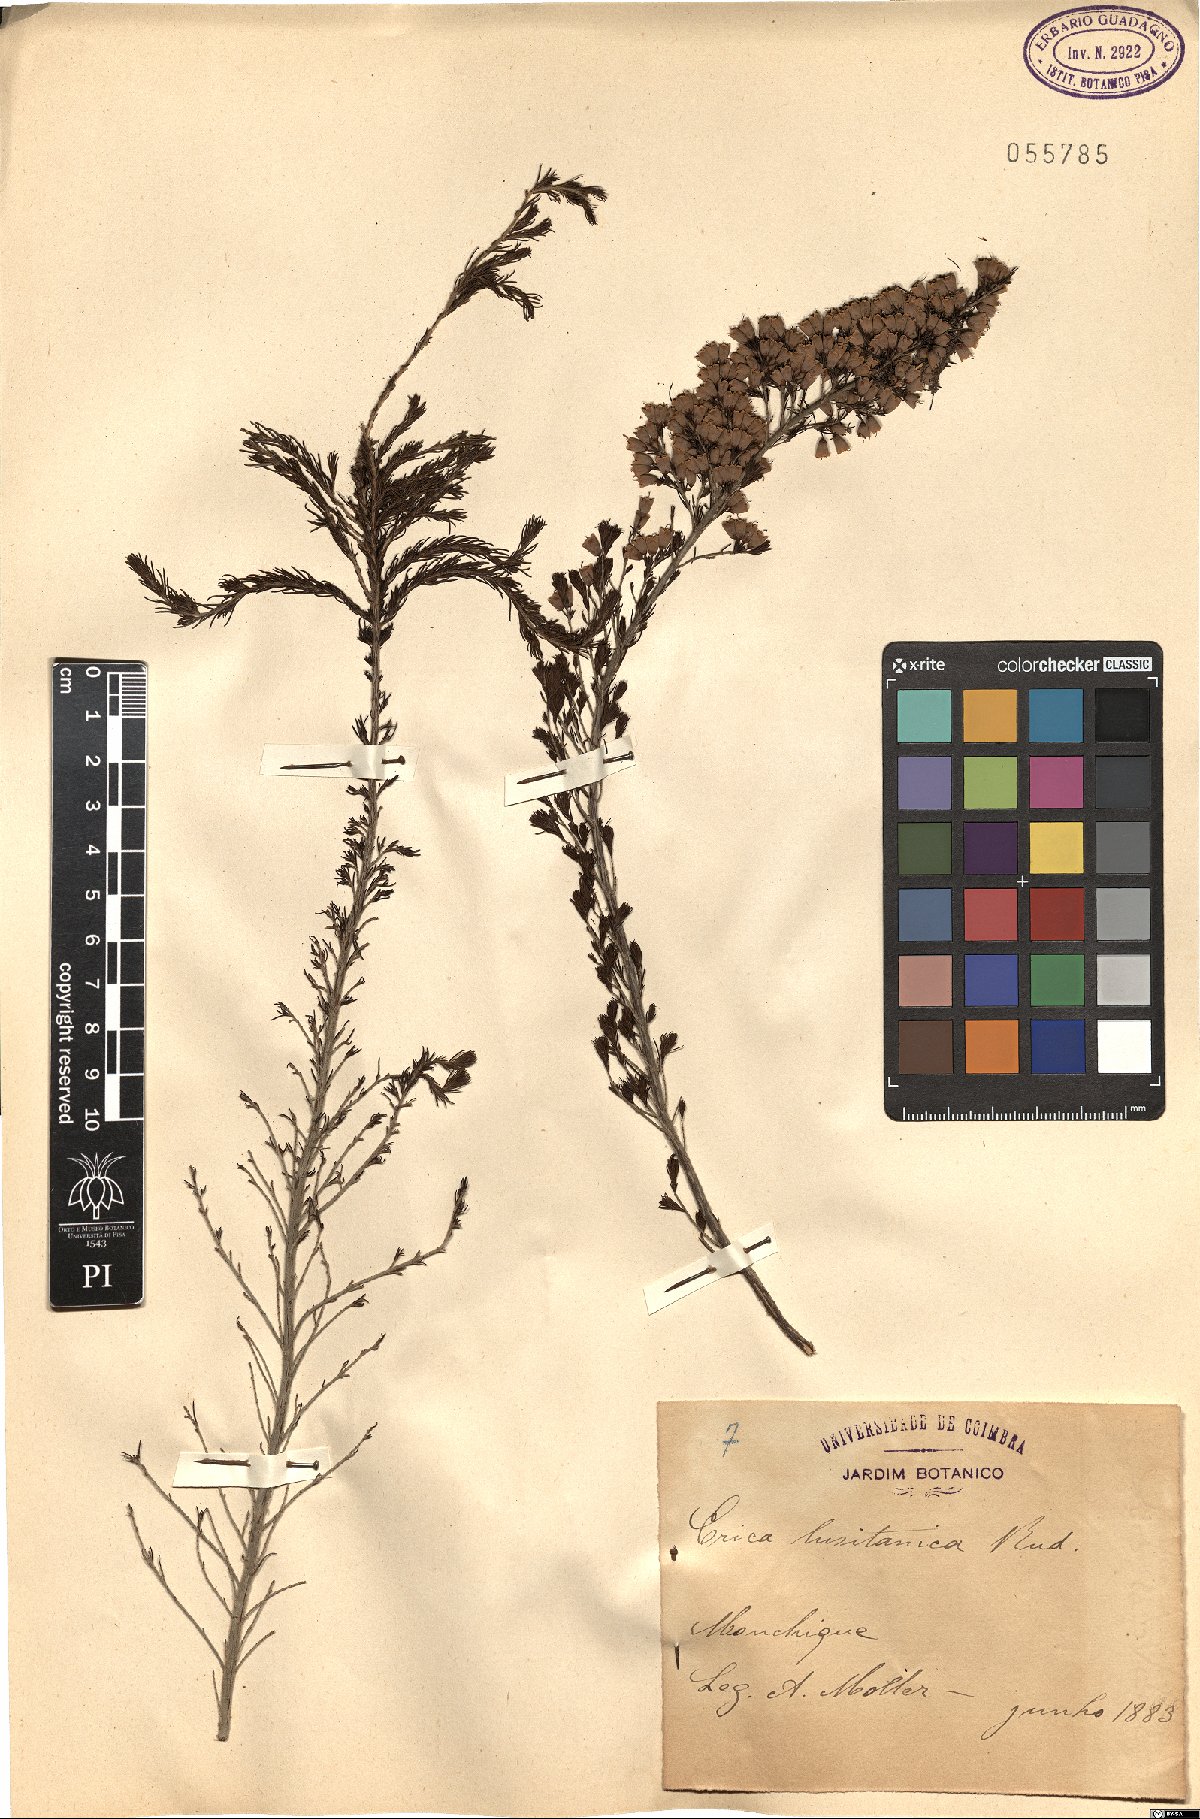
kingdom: Plantae
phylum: Tracheophyta
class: Magnoliopsida
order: Ericales
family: Ericaceae
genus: Erica
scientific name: Erica lusitanica
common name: Spanish heath
